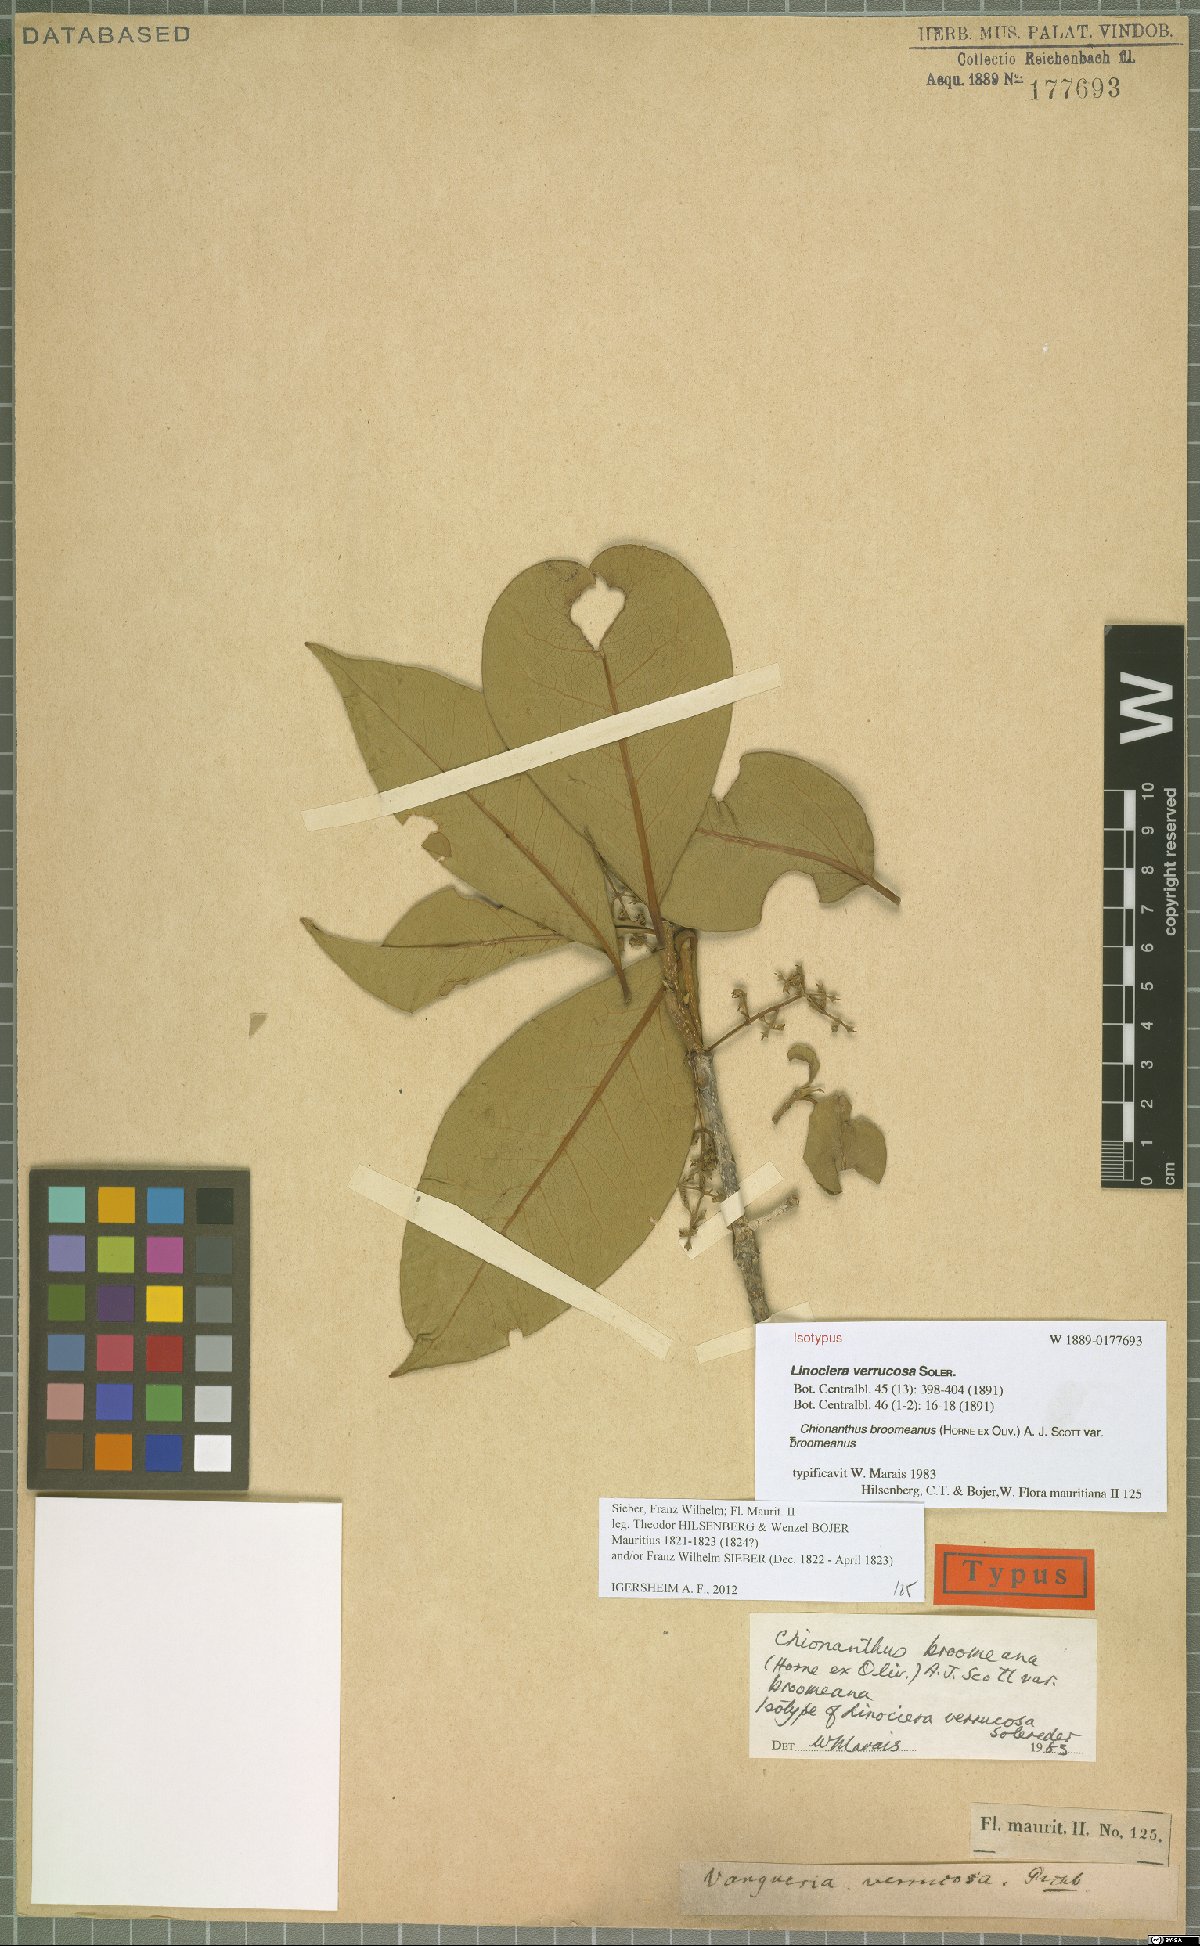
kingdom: Plantae
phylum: Tracheophyta
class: Magnoliopsida
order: Lamiales
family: Oleaceae
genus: Noronhia
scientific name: Noronhia broomeana
